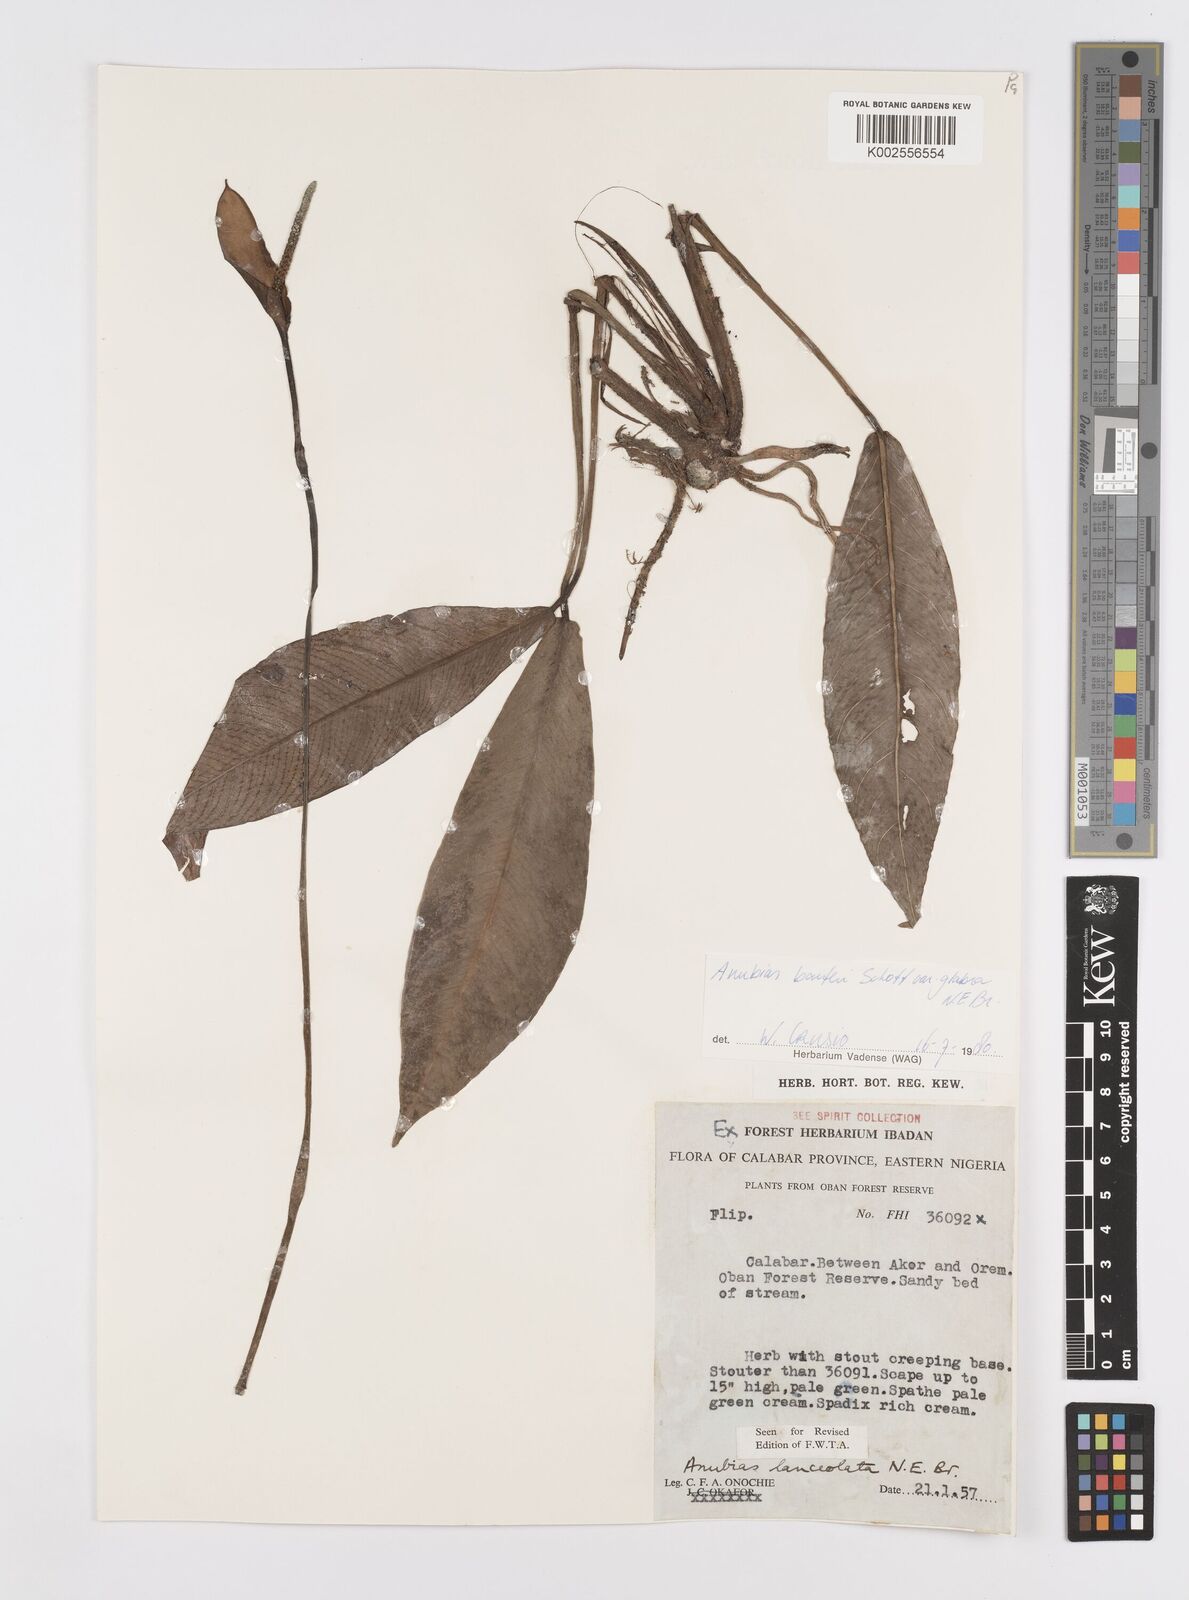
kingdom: Plantae
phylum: Tracheophyta
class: Liliopsida
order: Alismatales
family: Araceae
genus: Anubias
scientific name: Anubias barteri
